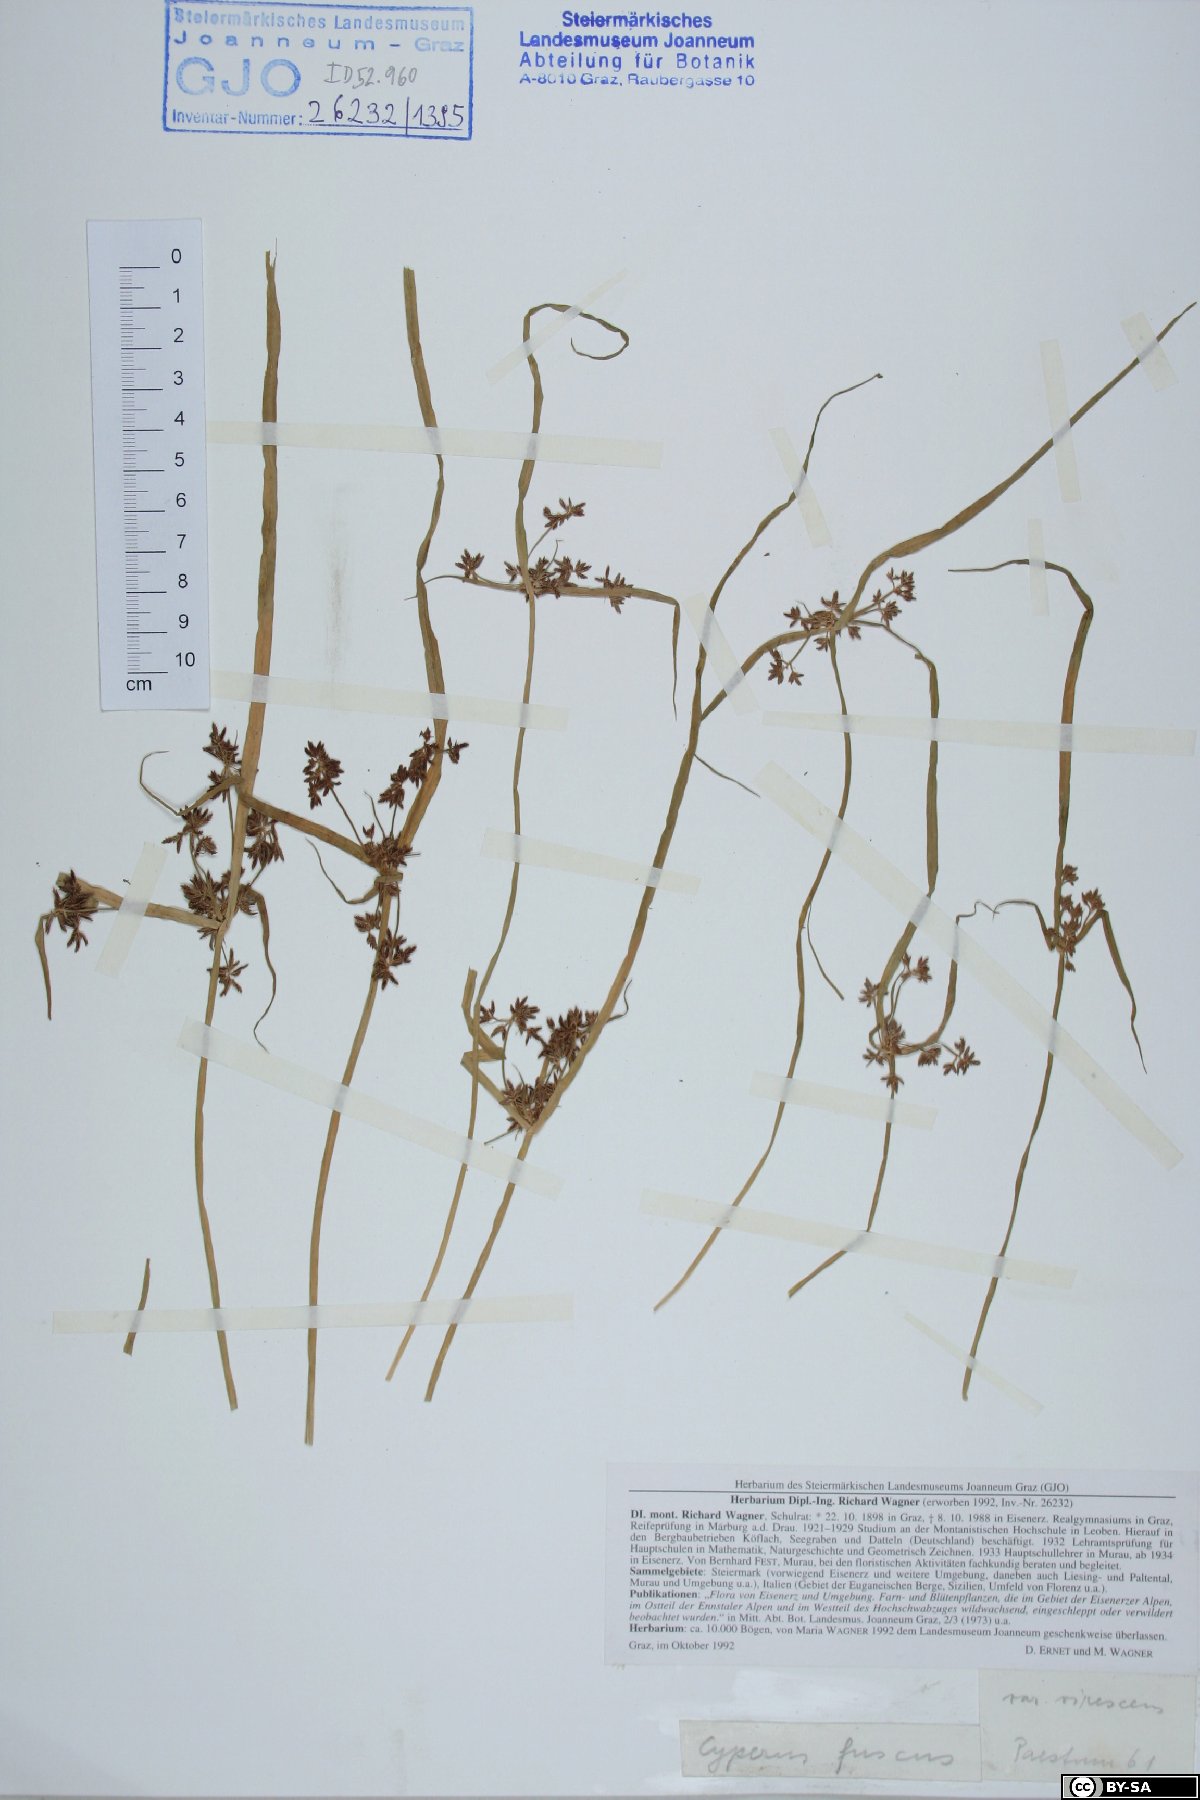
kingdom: Plantae
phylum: Tracheophyta
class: Liliopsida
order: Poales
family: Cyperaceae
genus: Cyperus
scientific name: Cyperus fuscus
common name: Brown galingale
